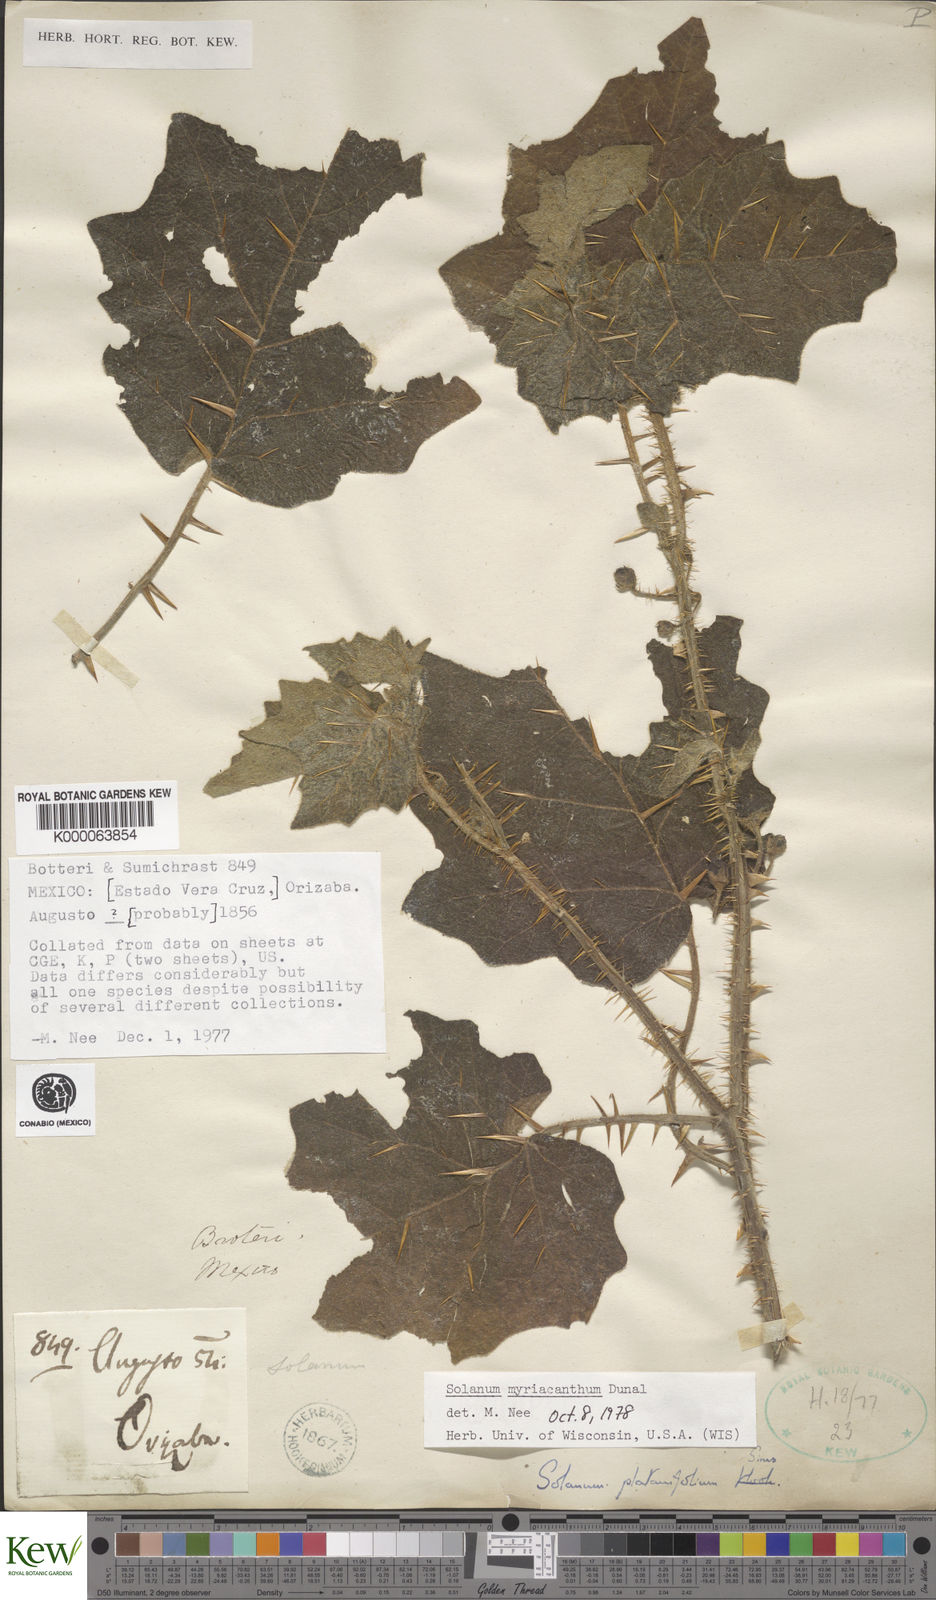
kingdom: Plantae
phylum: Tracheophyta
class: Magnoliopsida
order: Solanales
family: Solanaceae
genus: Solanum
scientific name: Solanum myriacanthum
